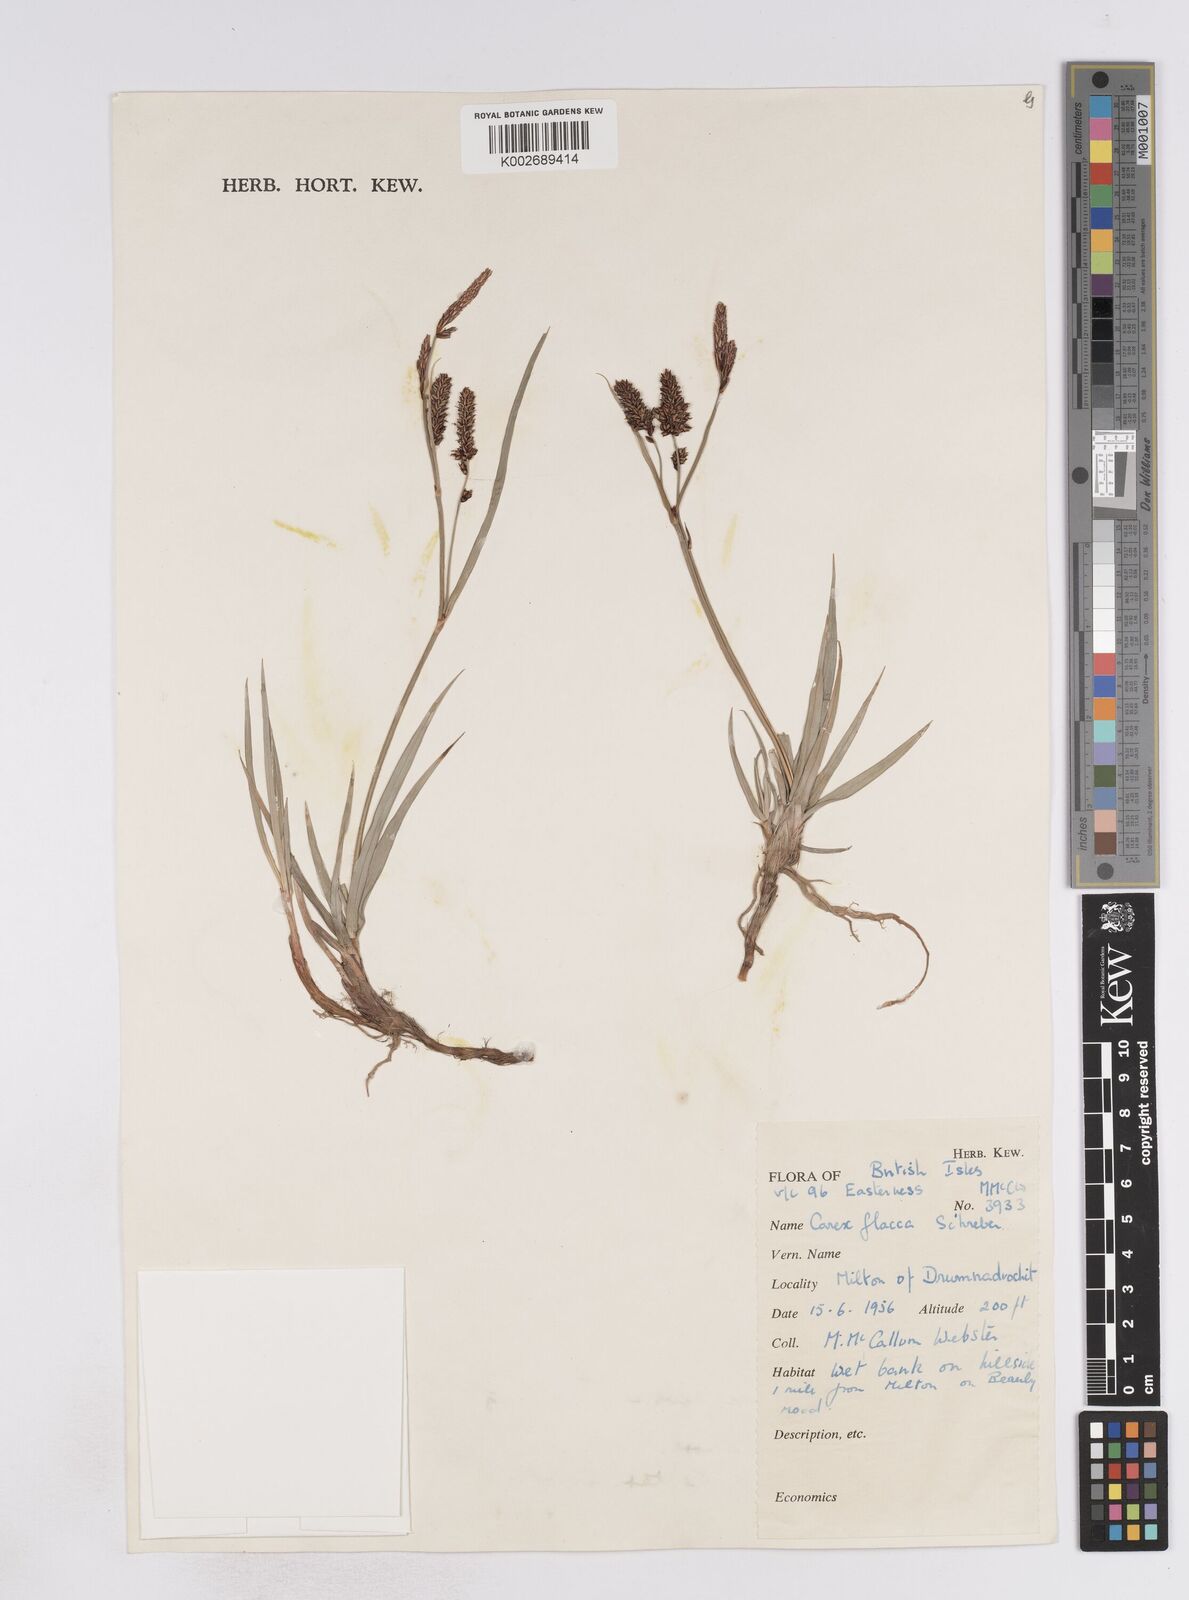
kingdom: Plantae
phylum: Tracheophyta
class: Liliopsida
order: Poales
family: Cyperaceae
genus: Carex
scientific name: Carex flacca
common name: Glaucous sedge
